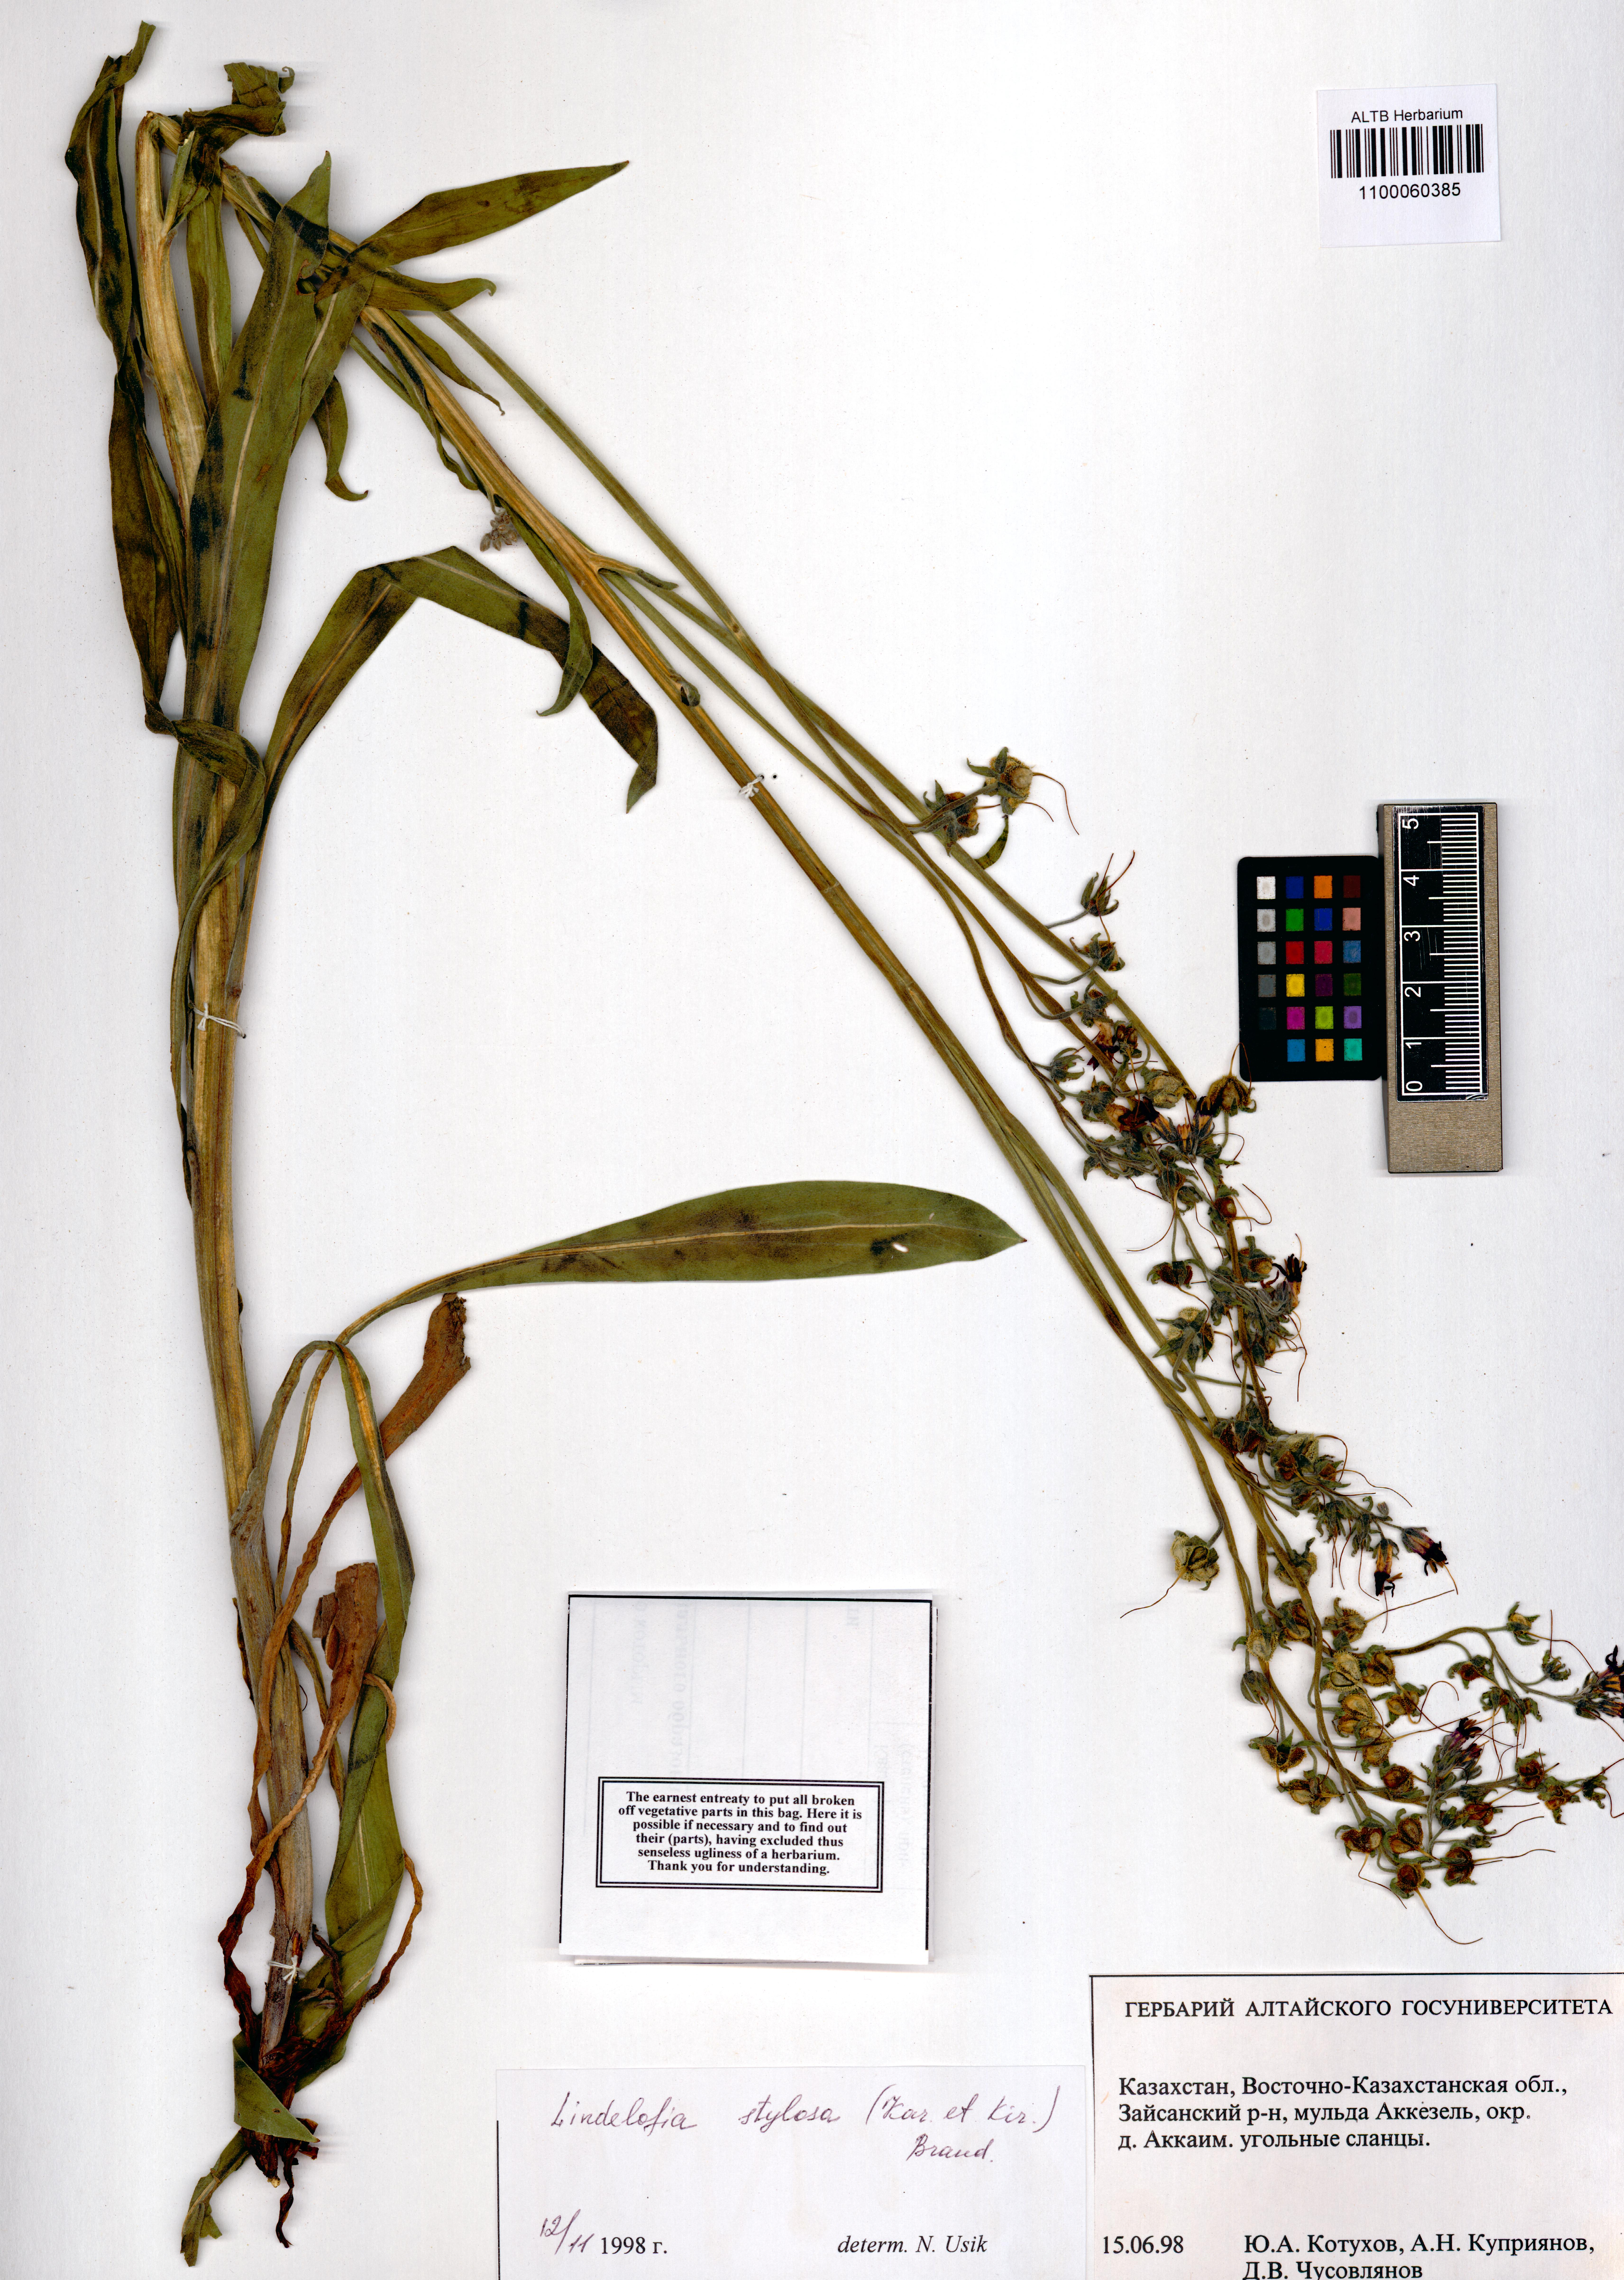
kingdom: Plantae
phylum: Tracheophyta
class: Magnoliopsida
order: Boraginales
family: Boraginaceae
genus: Lindelofia
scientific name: Lindelofia stylosa
